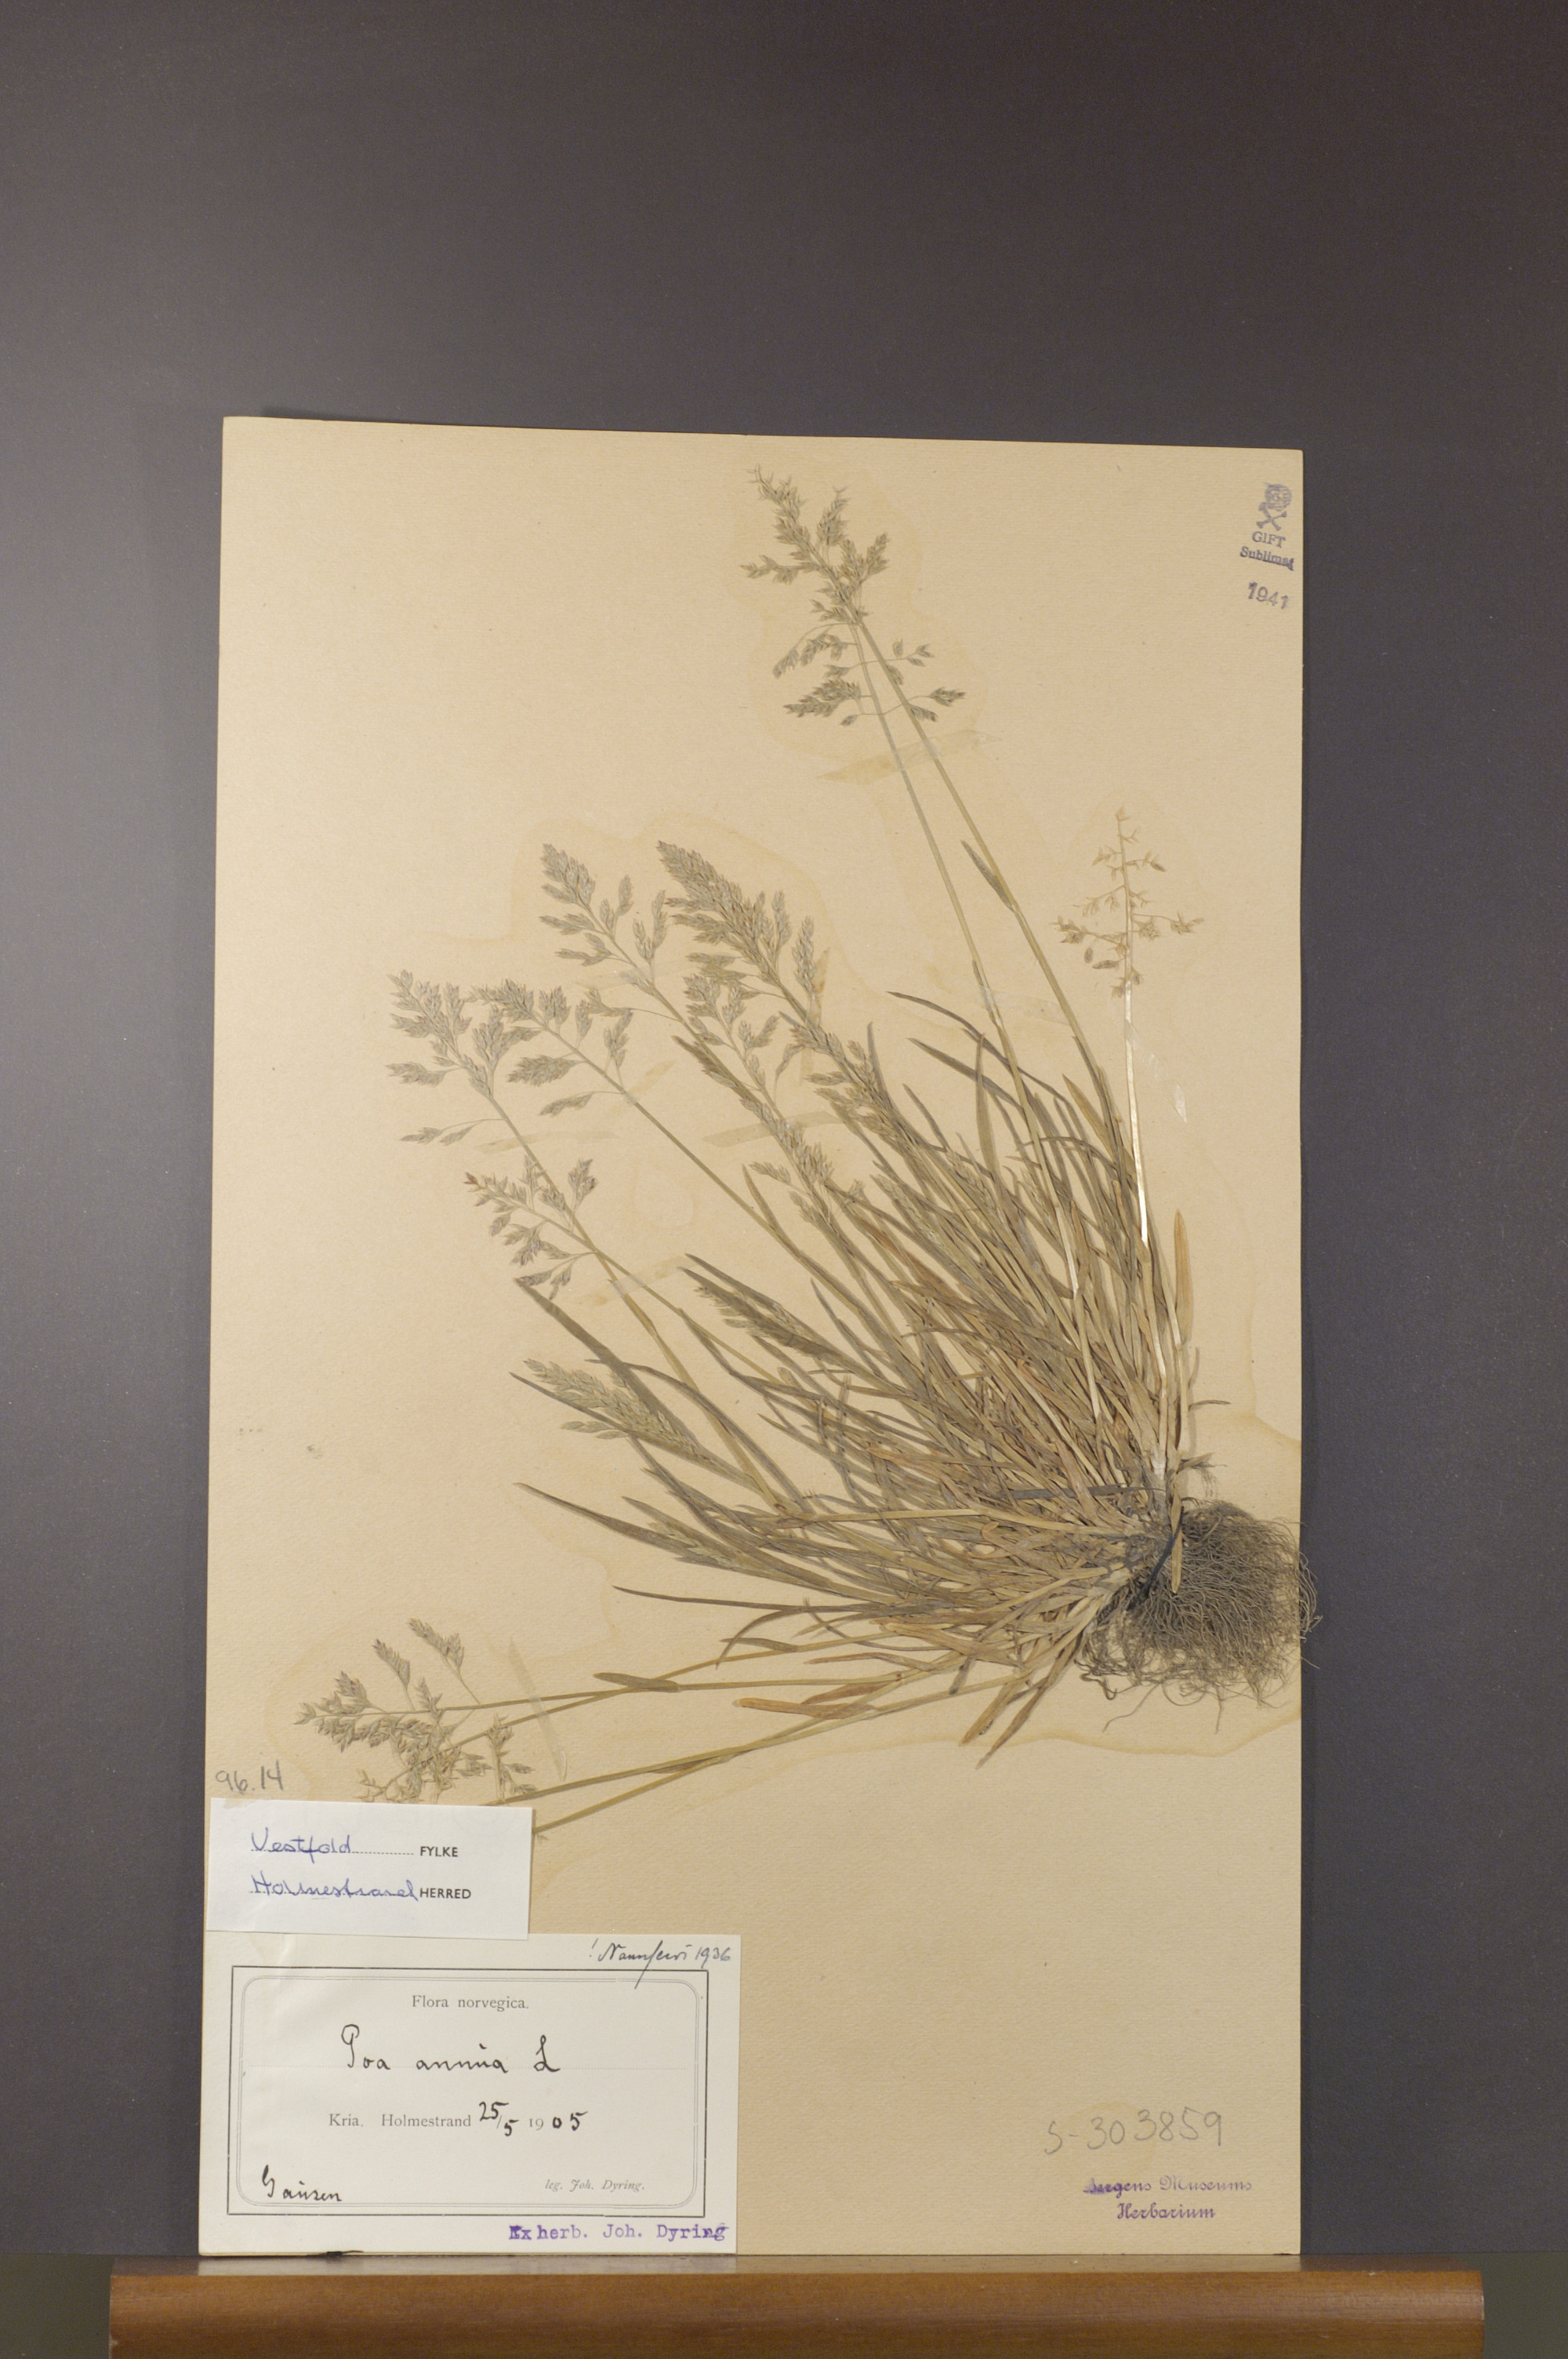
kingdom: Plantae
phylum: Tracheophyta
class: Liliopsida
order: Poales
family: Poaceae
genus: Poa
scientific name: Poa annua
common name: Annual bluegrass
